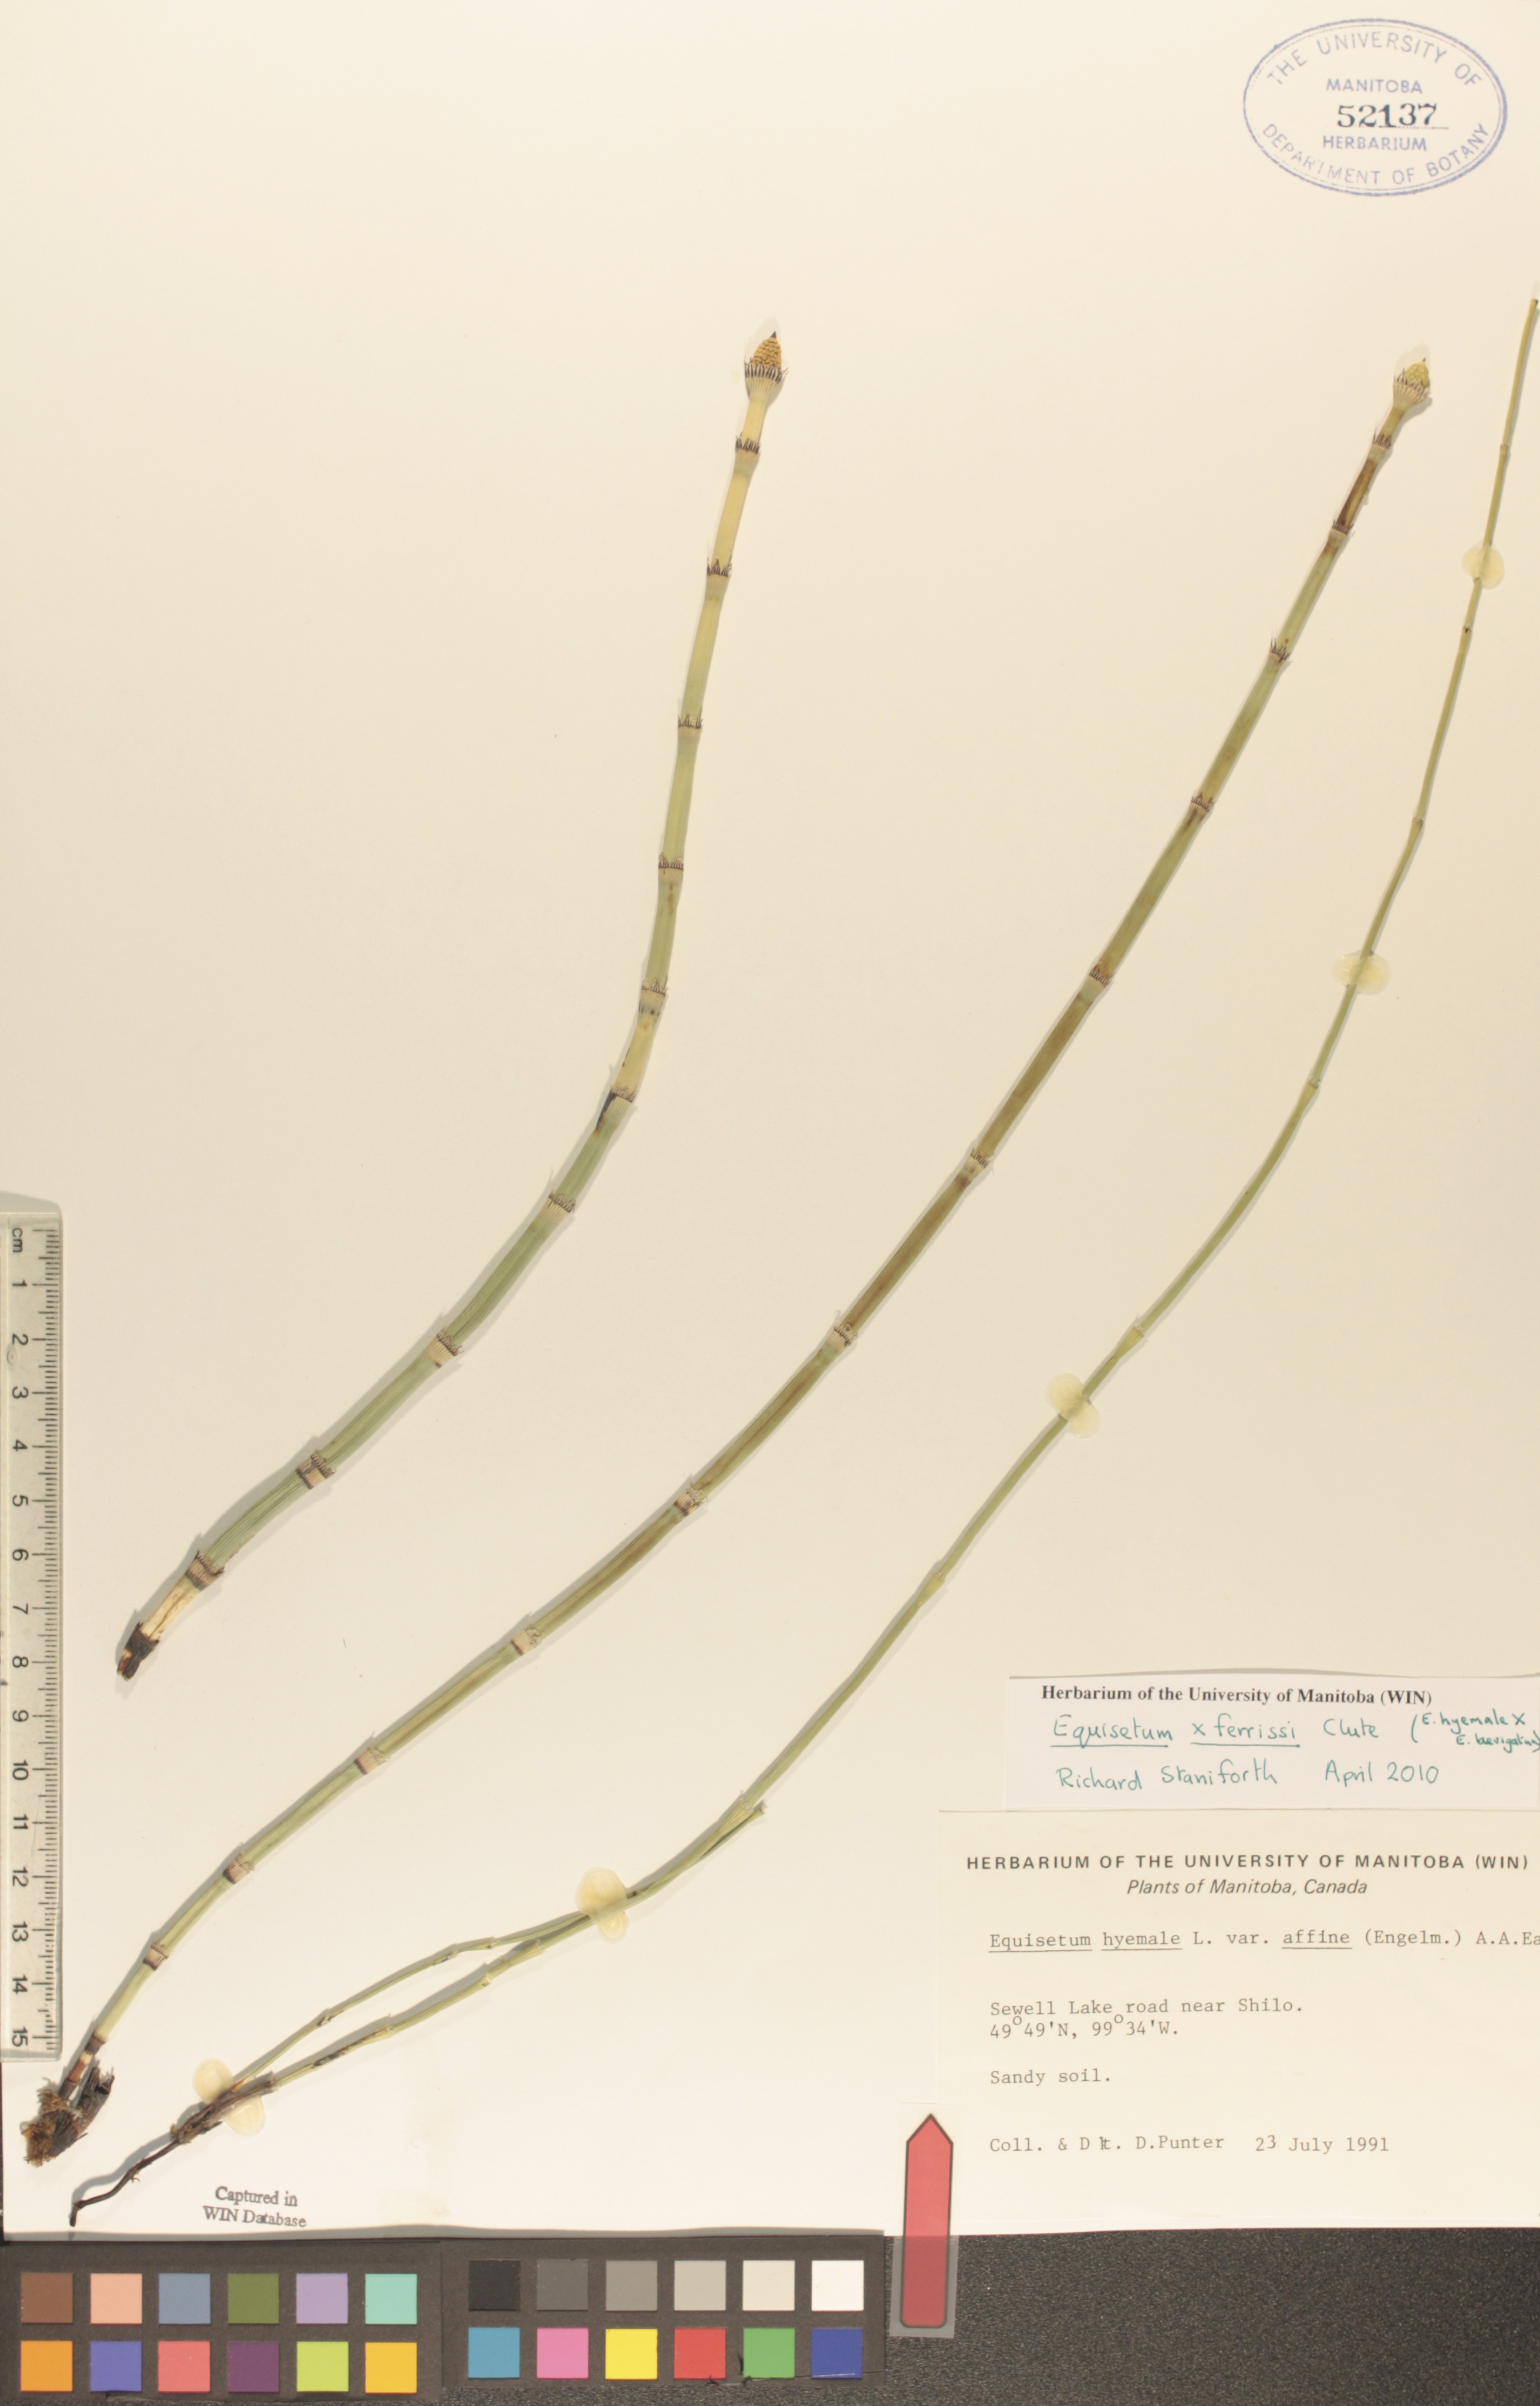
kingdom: Plantae
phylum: Tracheophyta
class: Polypodiopsida
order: Equisetales
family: Equisetaceae
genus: Equisetum
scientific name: Equisetum praealtum
